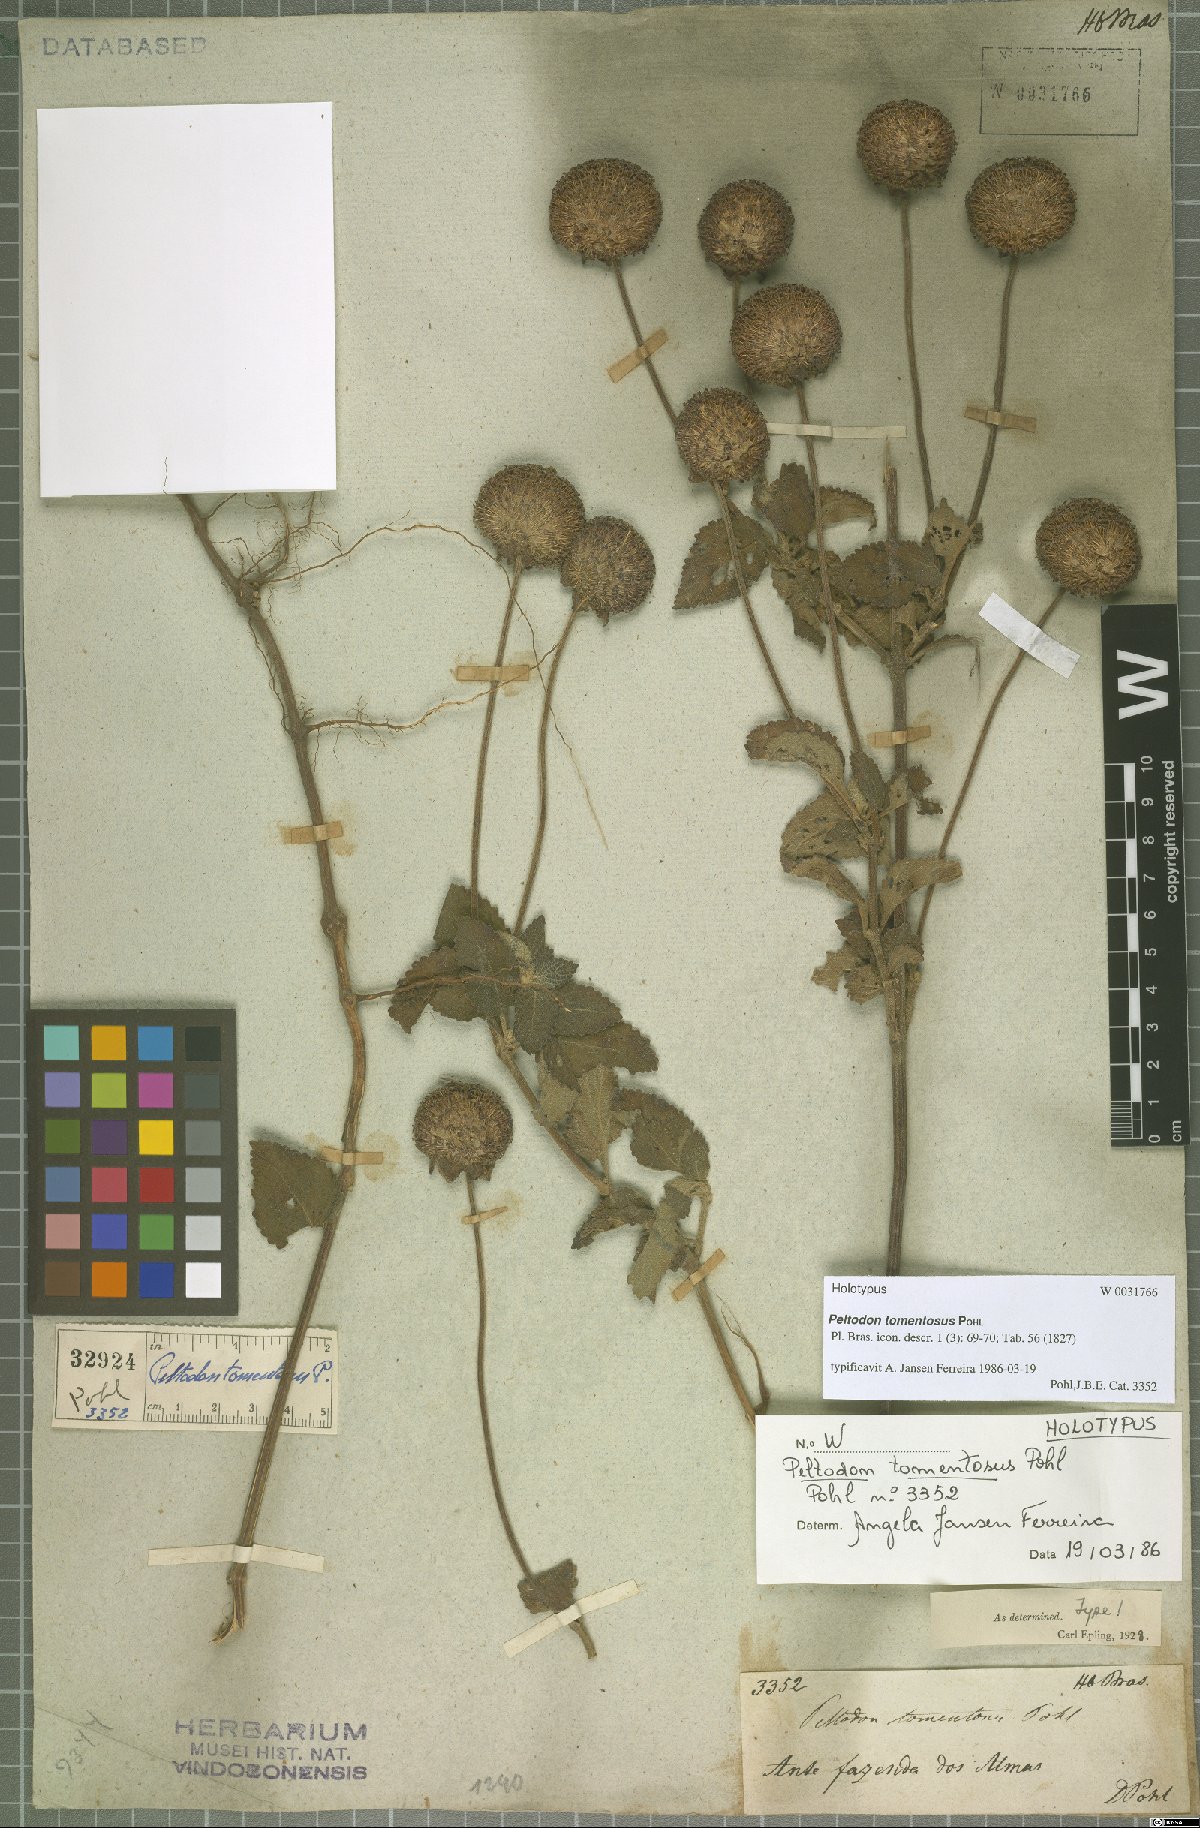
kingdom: Plantae
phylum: Tracheophyta
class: Magnoliopsida
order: Lamiales
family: Lamiaceae
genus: Hyptis
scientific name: Hyptis campestris
